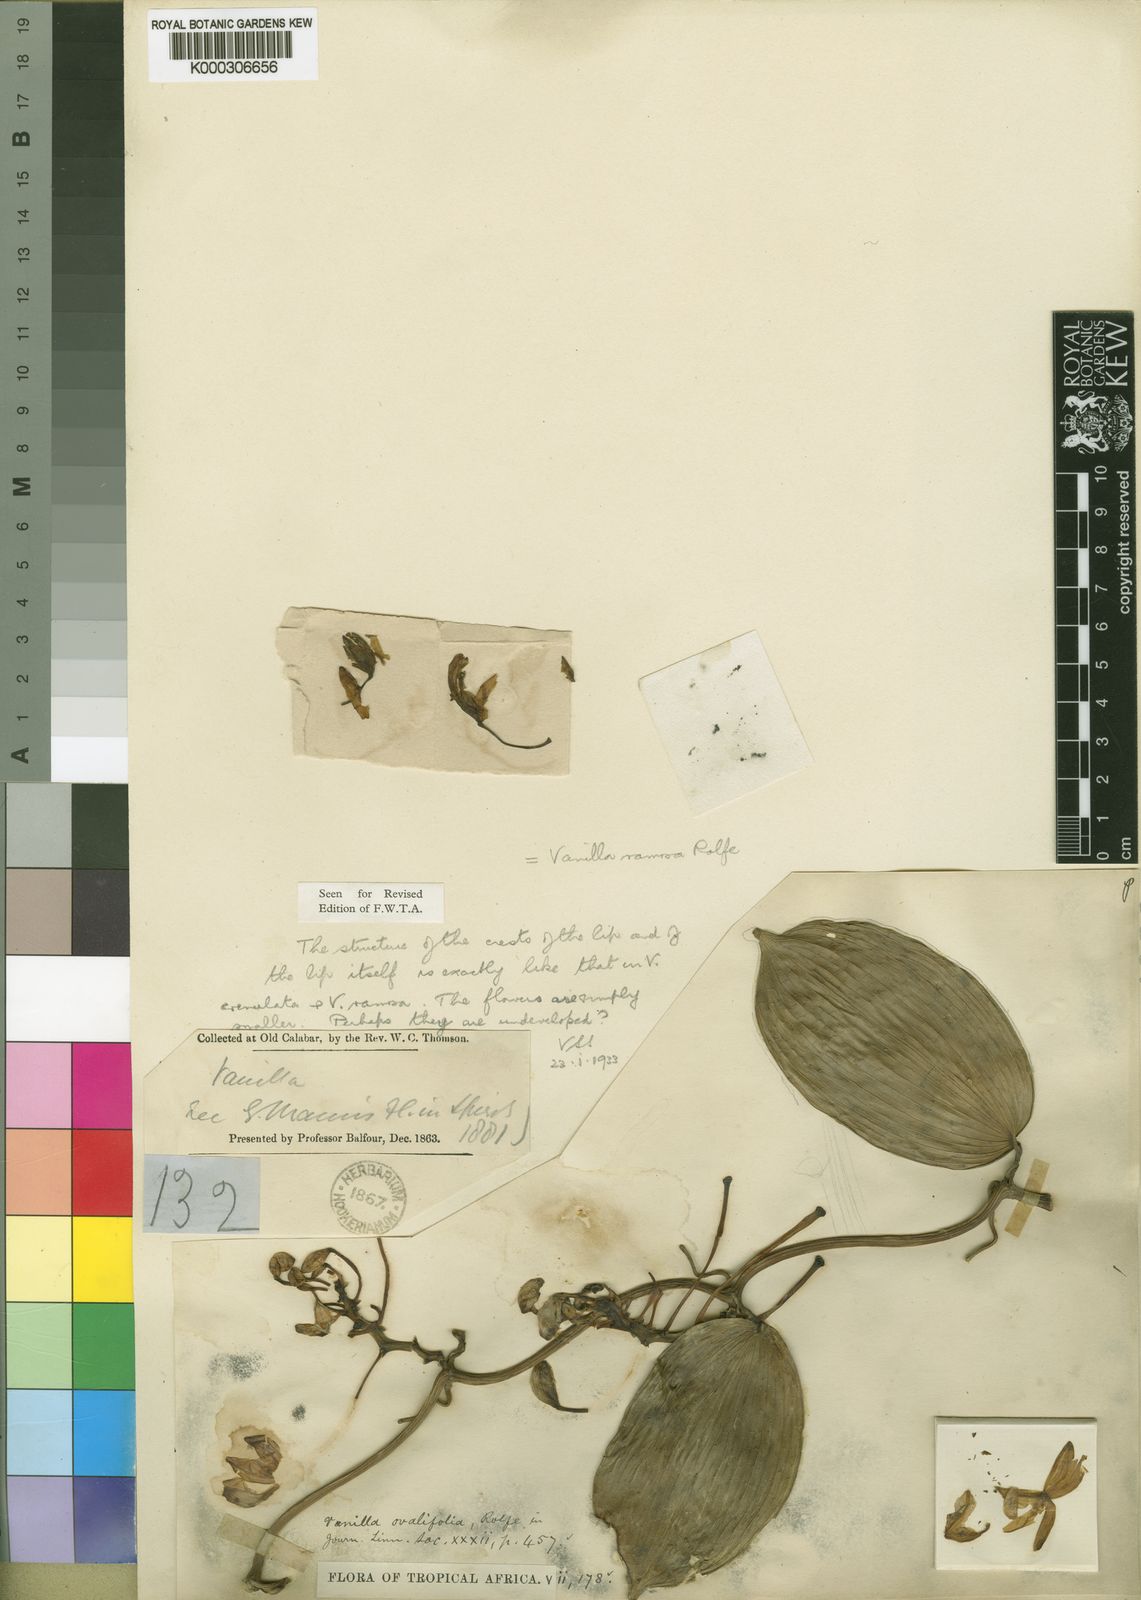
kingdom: Plantae
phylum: Tracheophyta
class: Liliopsida
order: Asparagales
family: Orchidaceae
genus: Vanilla
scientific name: Vanilla ramosa
